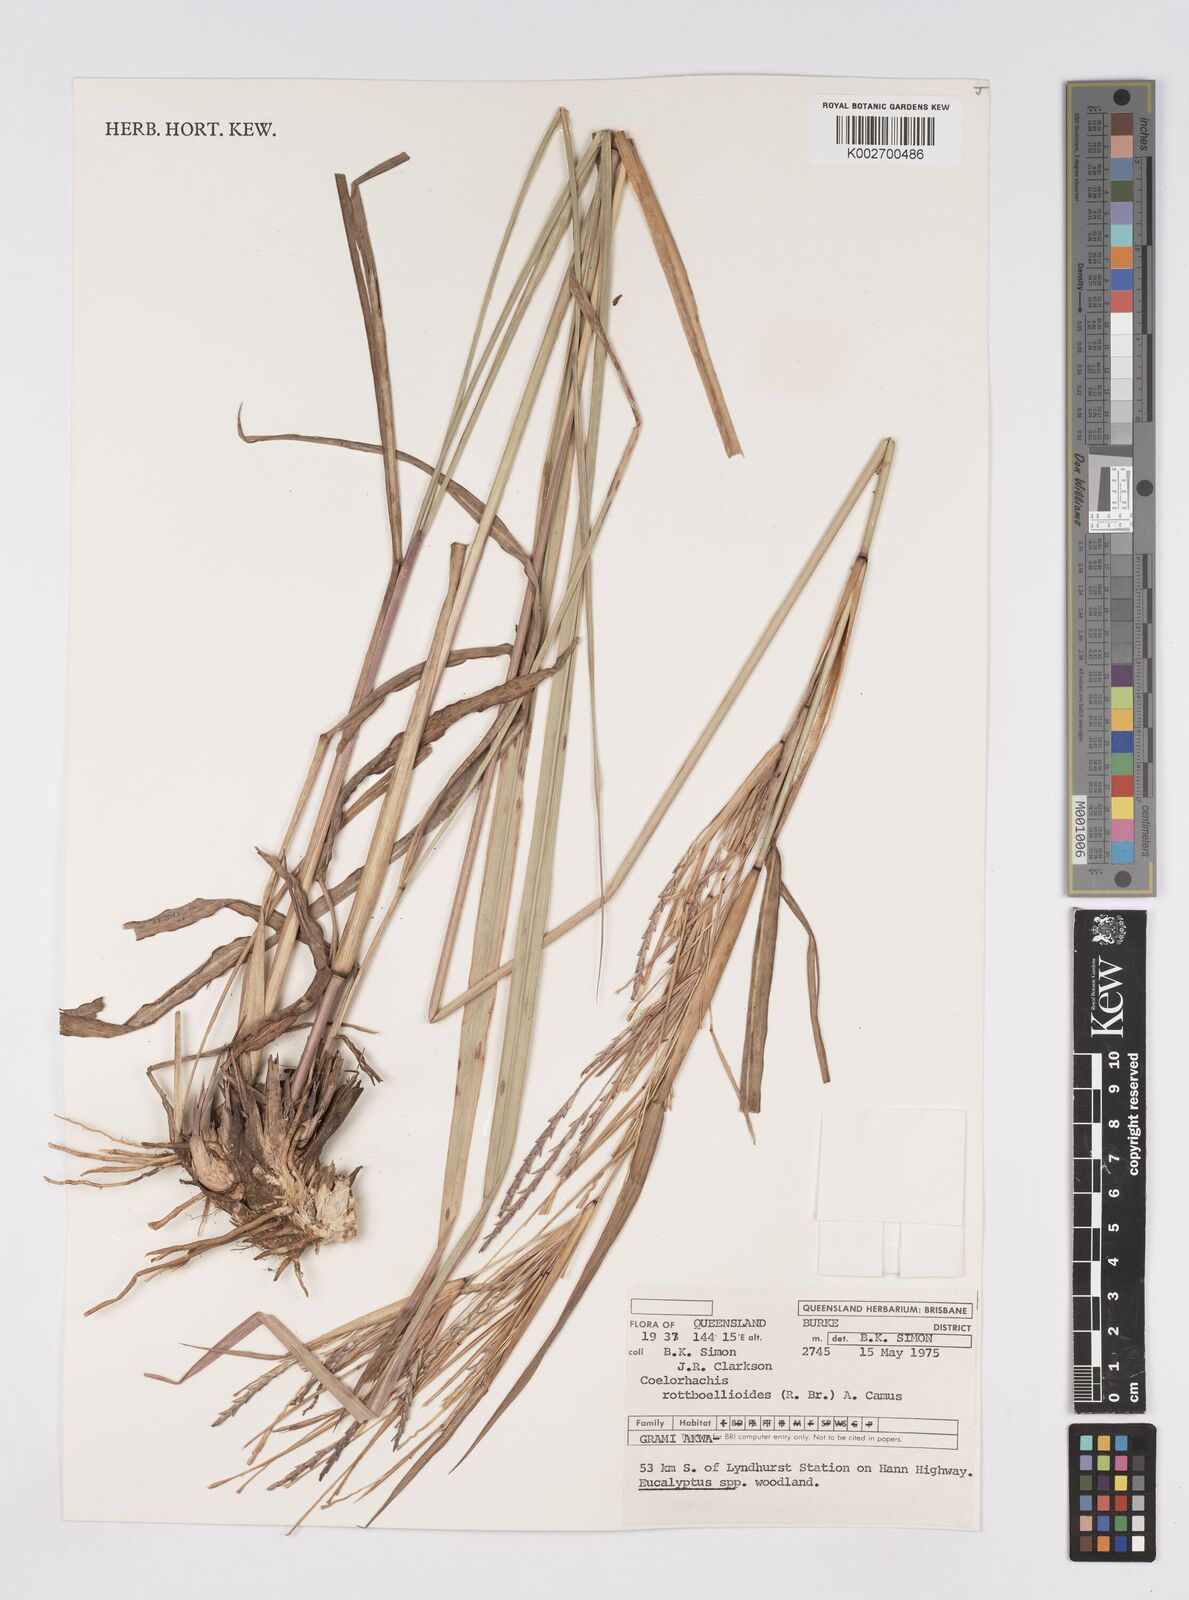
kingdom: Plantae
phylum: Tracheophyta
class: Liliopsida
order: Poales
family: Poaceae
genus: Rottboellia
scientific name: Rottboellia rottboellioides
